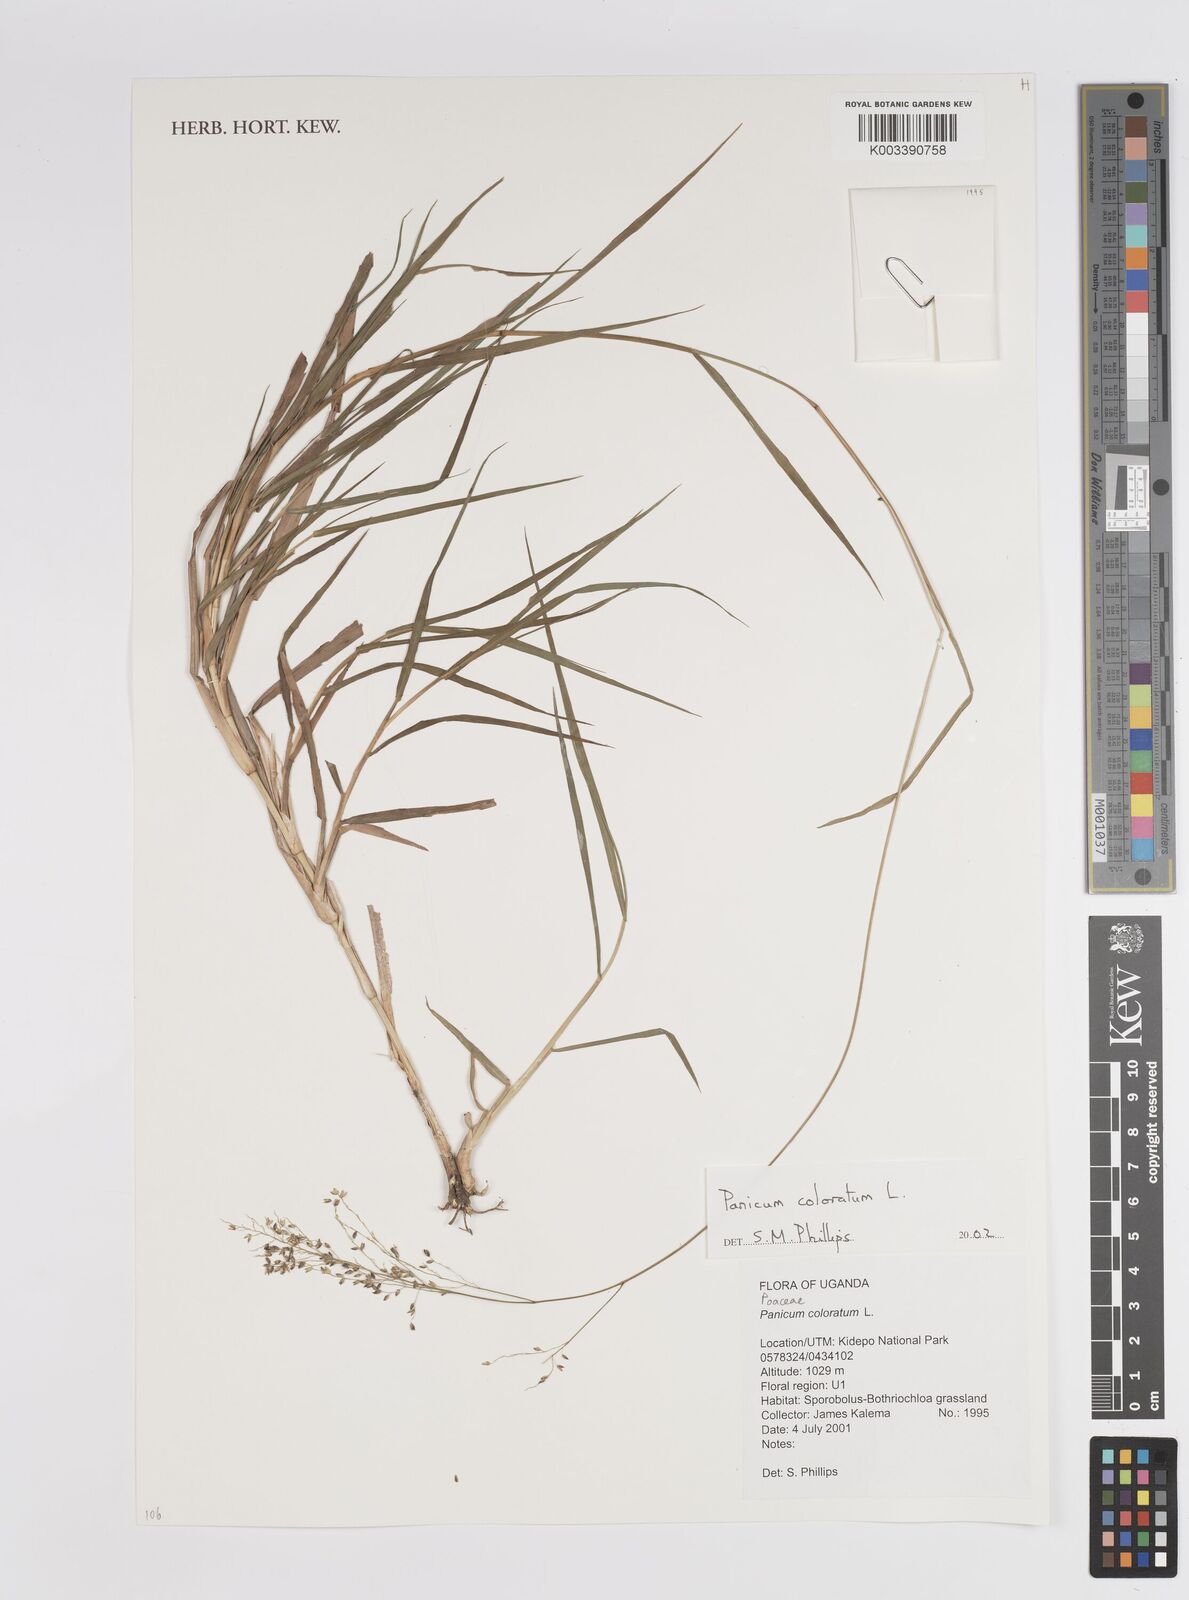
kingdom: Plantae
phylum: Tracheophyta
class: Liliopsida
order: Poales
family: Poaceae
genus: Panicum
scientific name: Panicum coloratum
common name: Kleingrass
